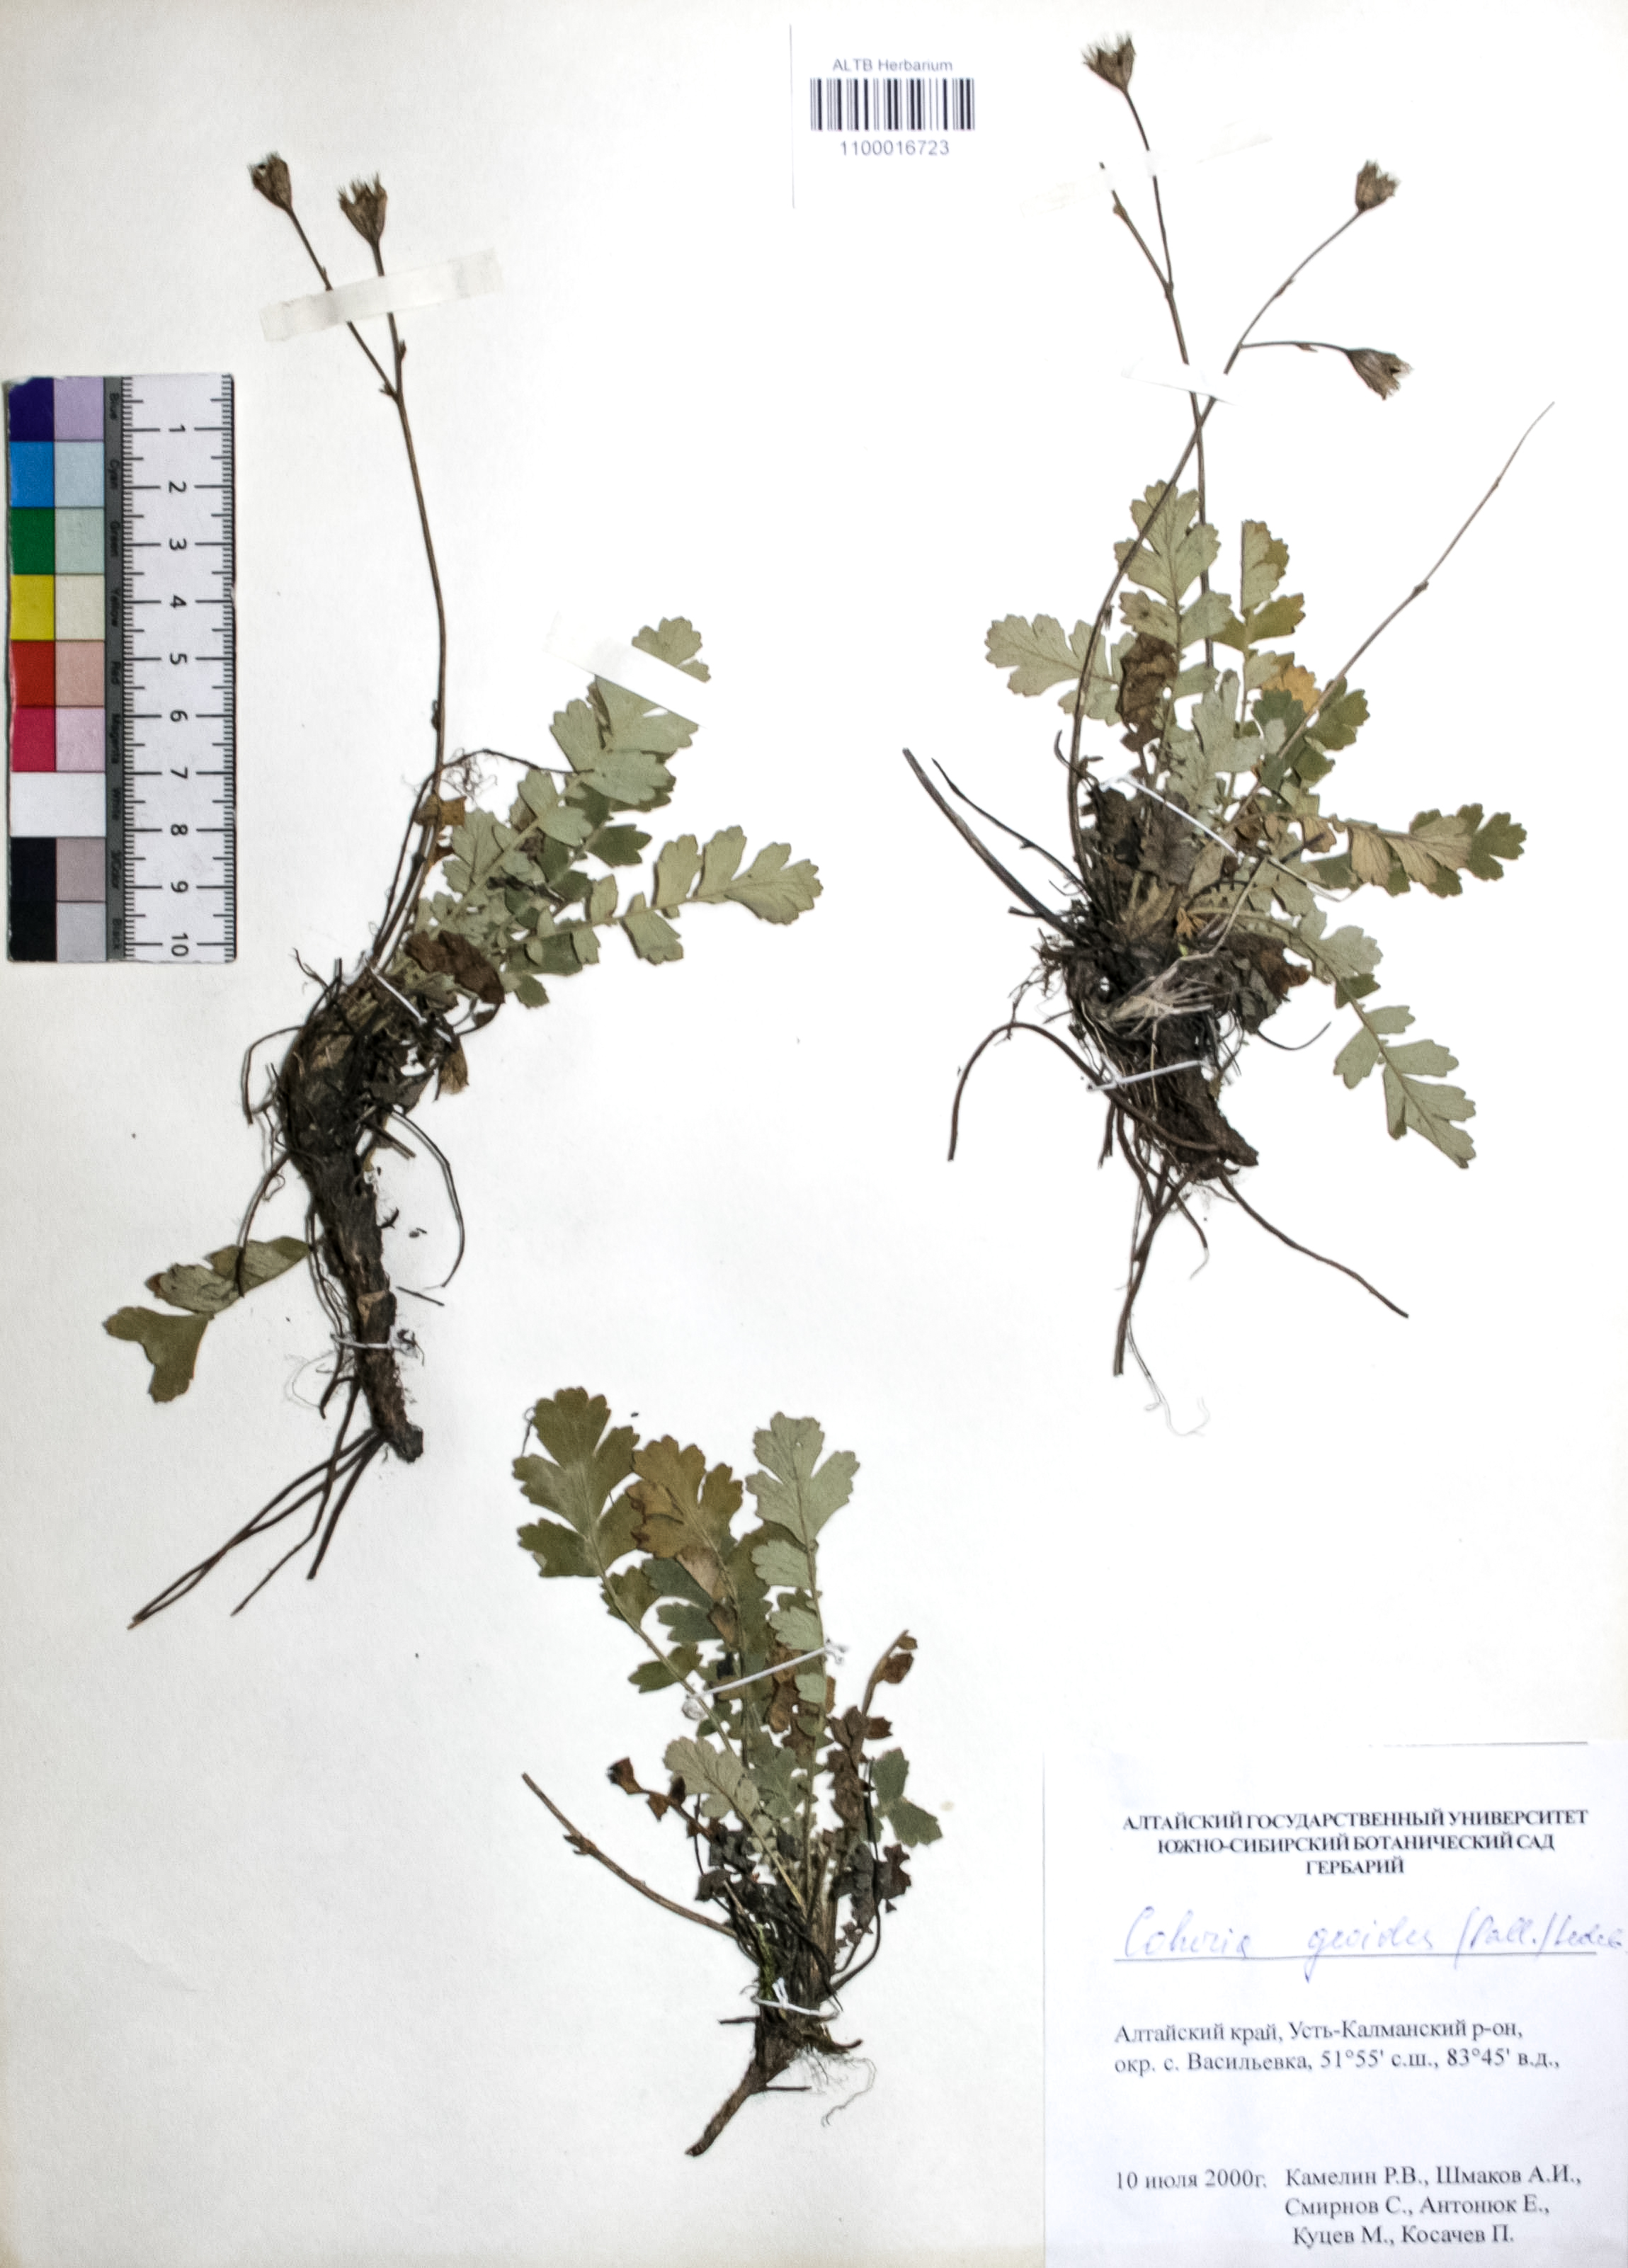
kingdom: Plantae
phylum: Tracheophyta
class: Magnoliopsida
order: Rosales
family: Rosaceae
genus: Geum
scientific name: Geum geoides
